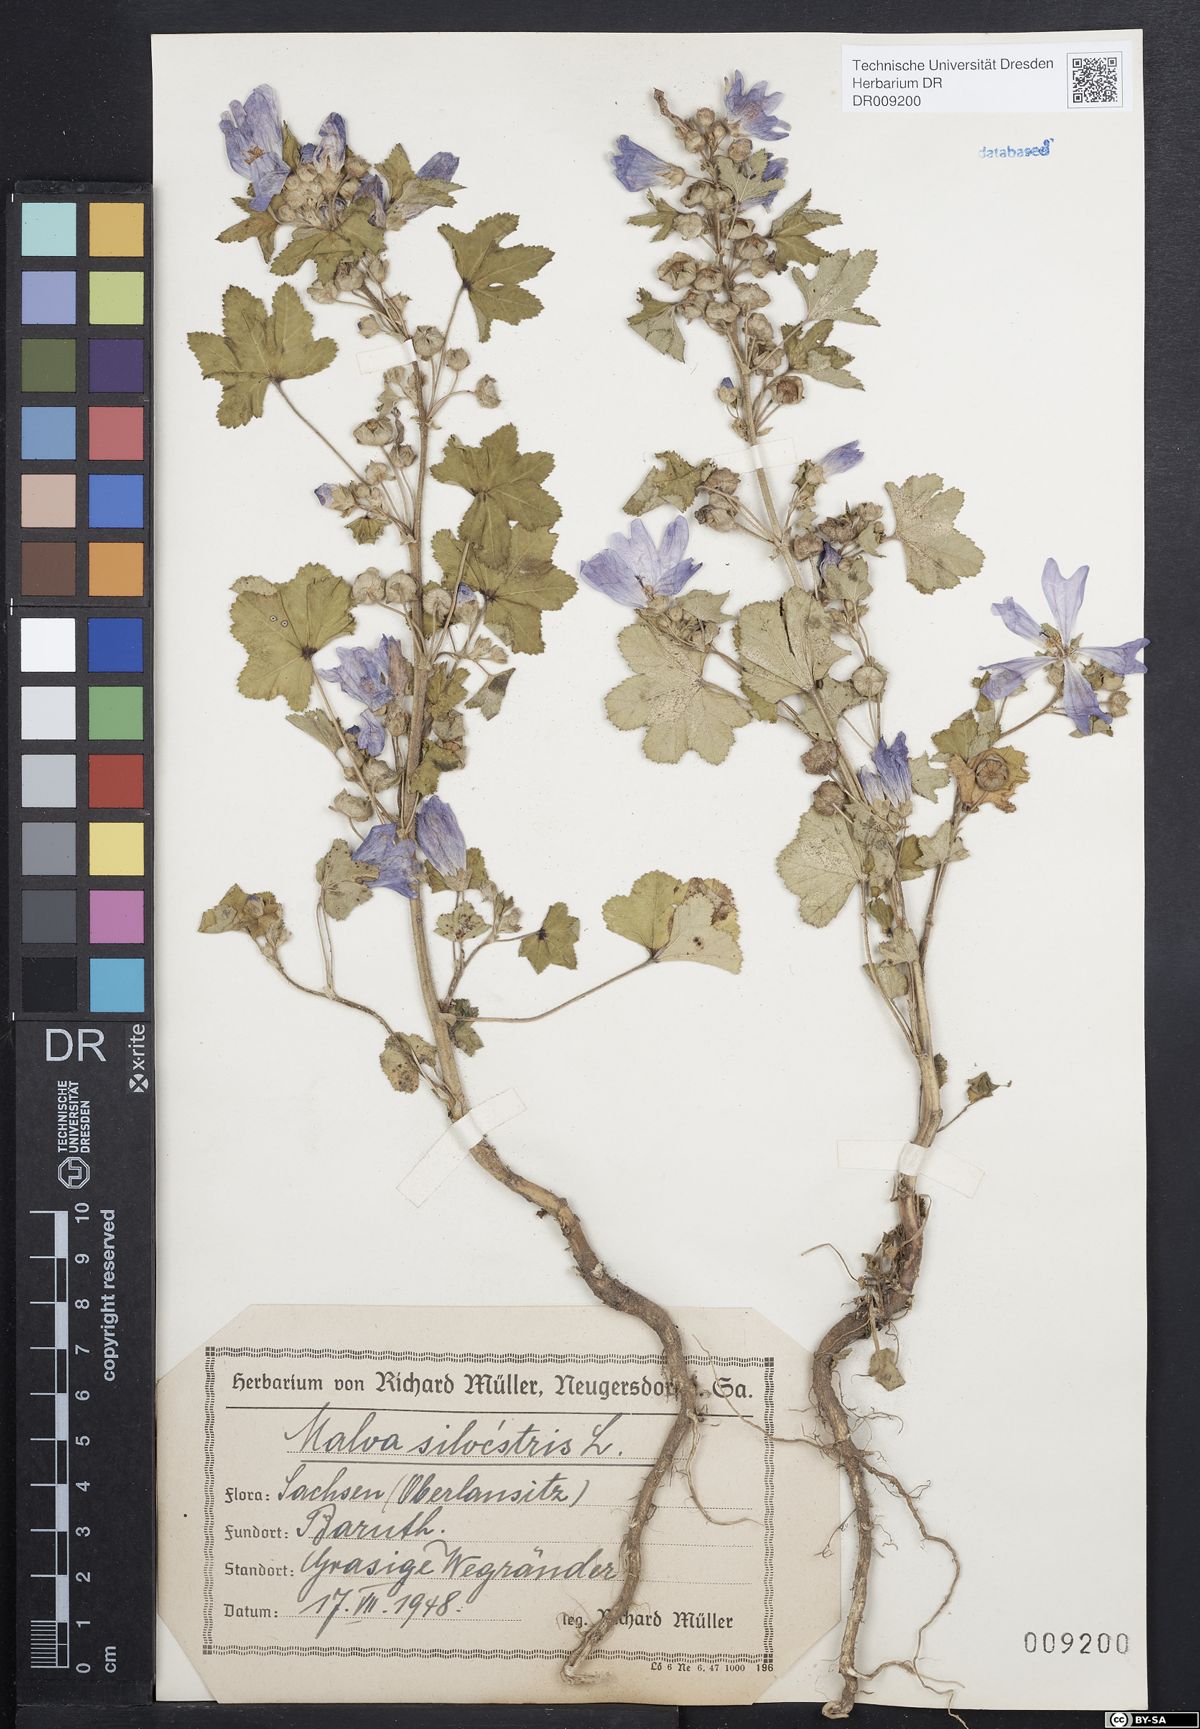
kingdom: Plantae
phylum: Tracheophyta
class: Magnoliopsida
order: Malvales
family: Malvaceae
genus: Malva
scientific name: Malva sylvestris
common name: Common mallow
